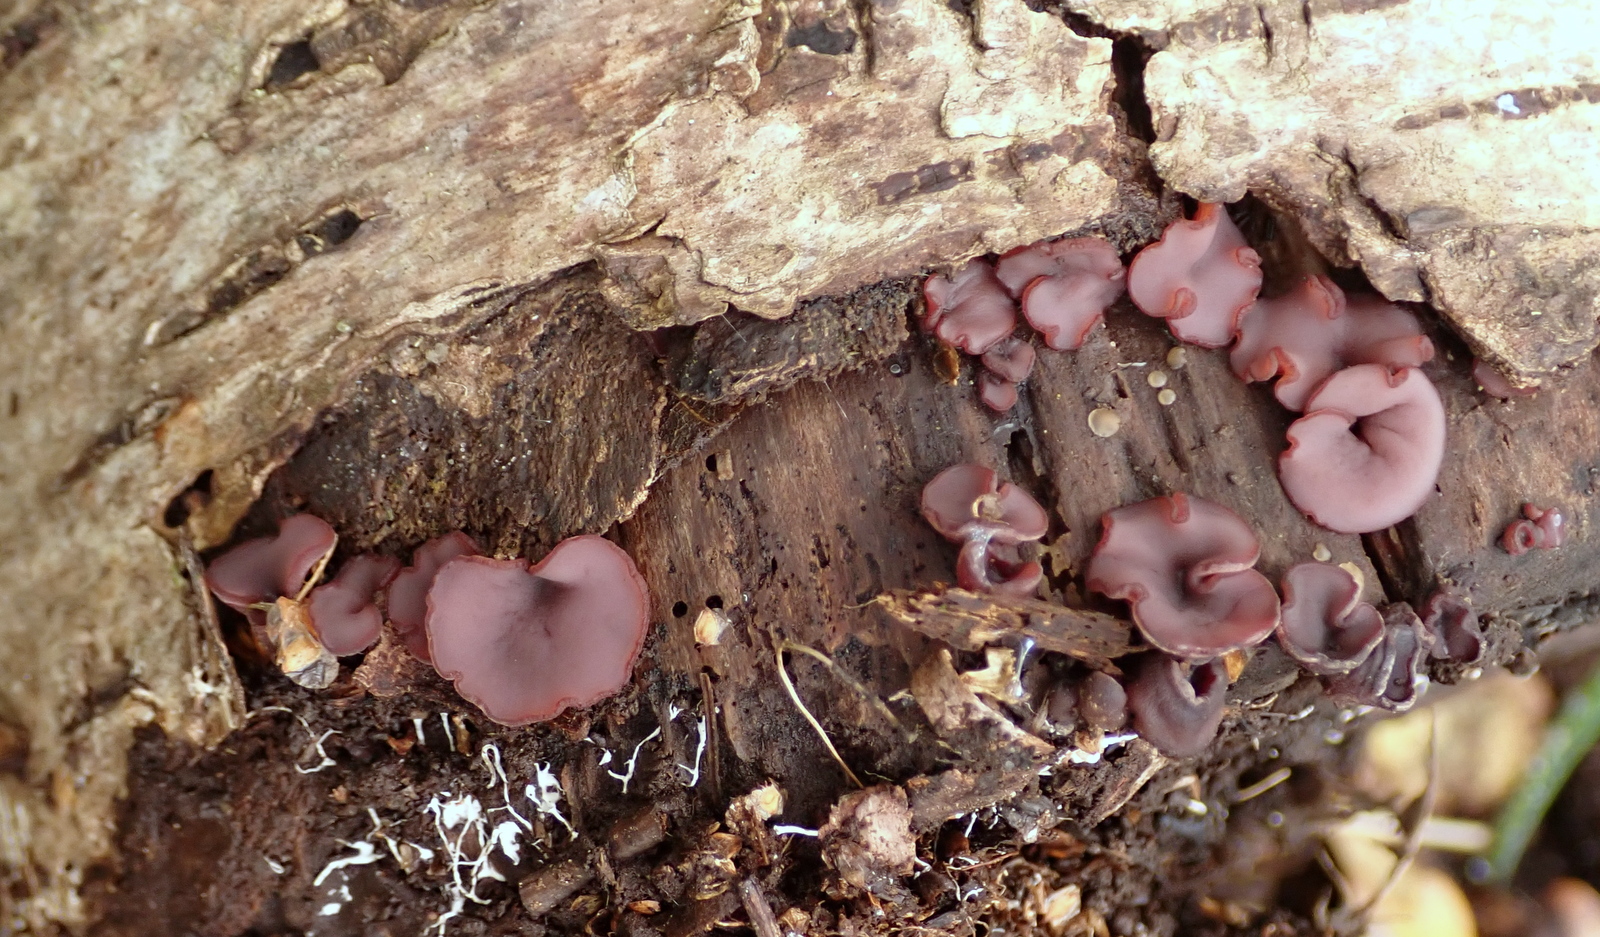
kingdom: Fungi
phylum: Ascomycota
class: Leotiomycetes
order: Helotiales
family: Gelatinodiscaceae
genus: Ascocoryne
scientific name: Ascocoryne cylichnium
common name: stor sejskive
